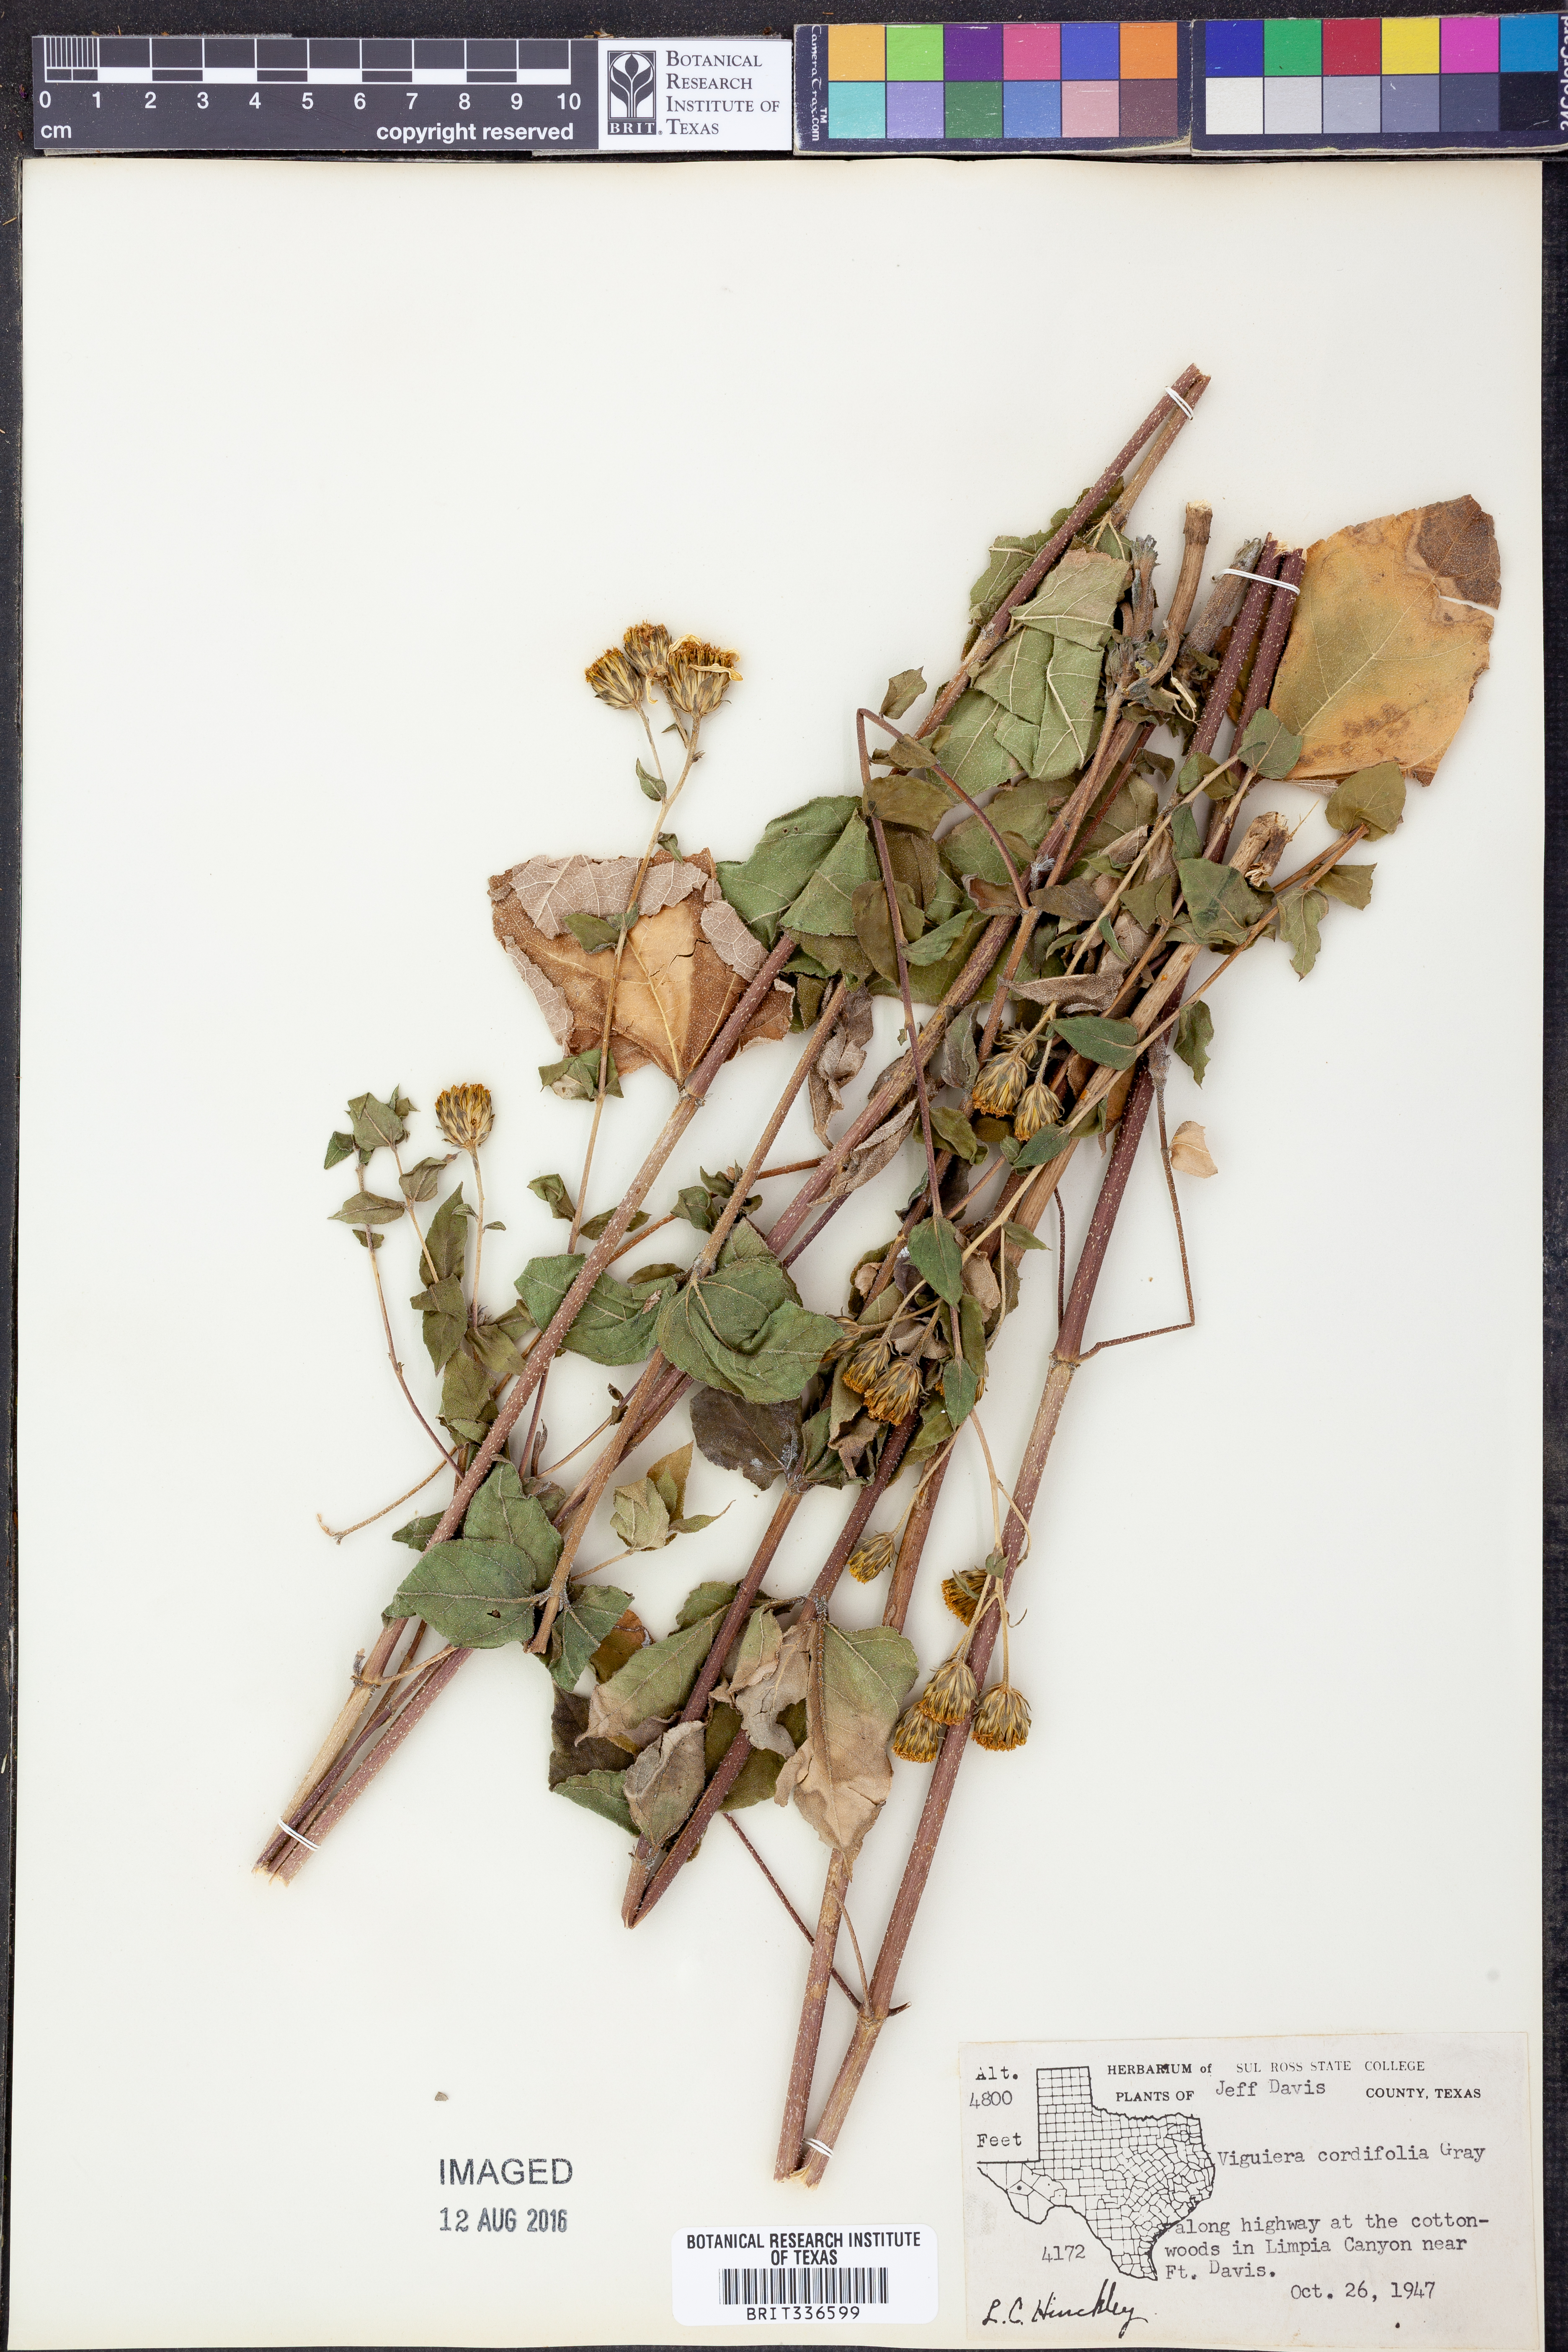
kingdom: Plantae
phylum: Tracheophyta
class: Magnoliopsida
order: Asterales
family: Asteraceae
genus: Aldama
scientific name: Aldama cordifolia
